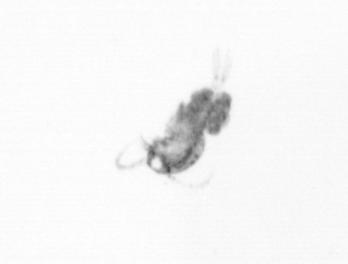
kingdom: Animalia
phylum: Arthropoda
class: Copepoda
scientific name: Copepoda
